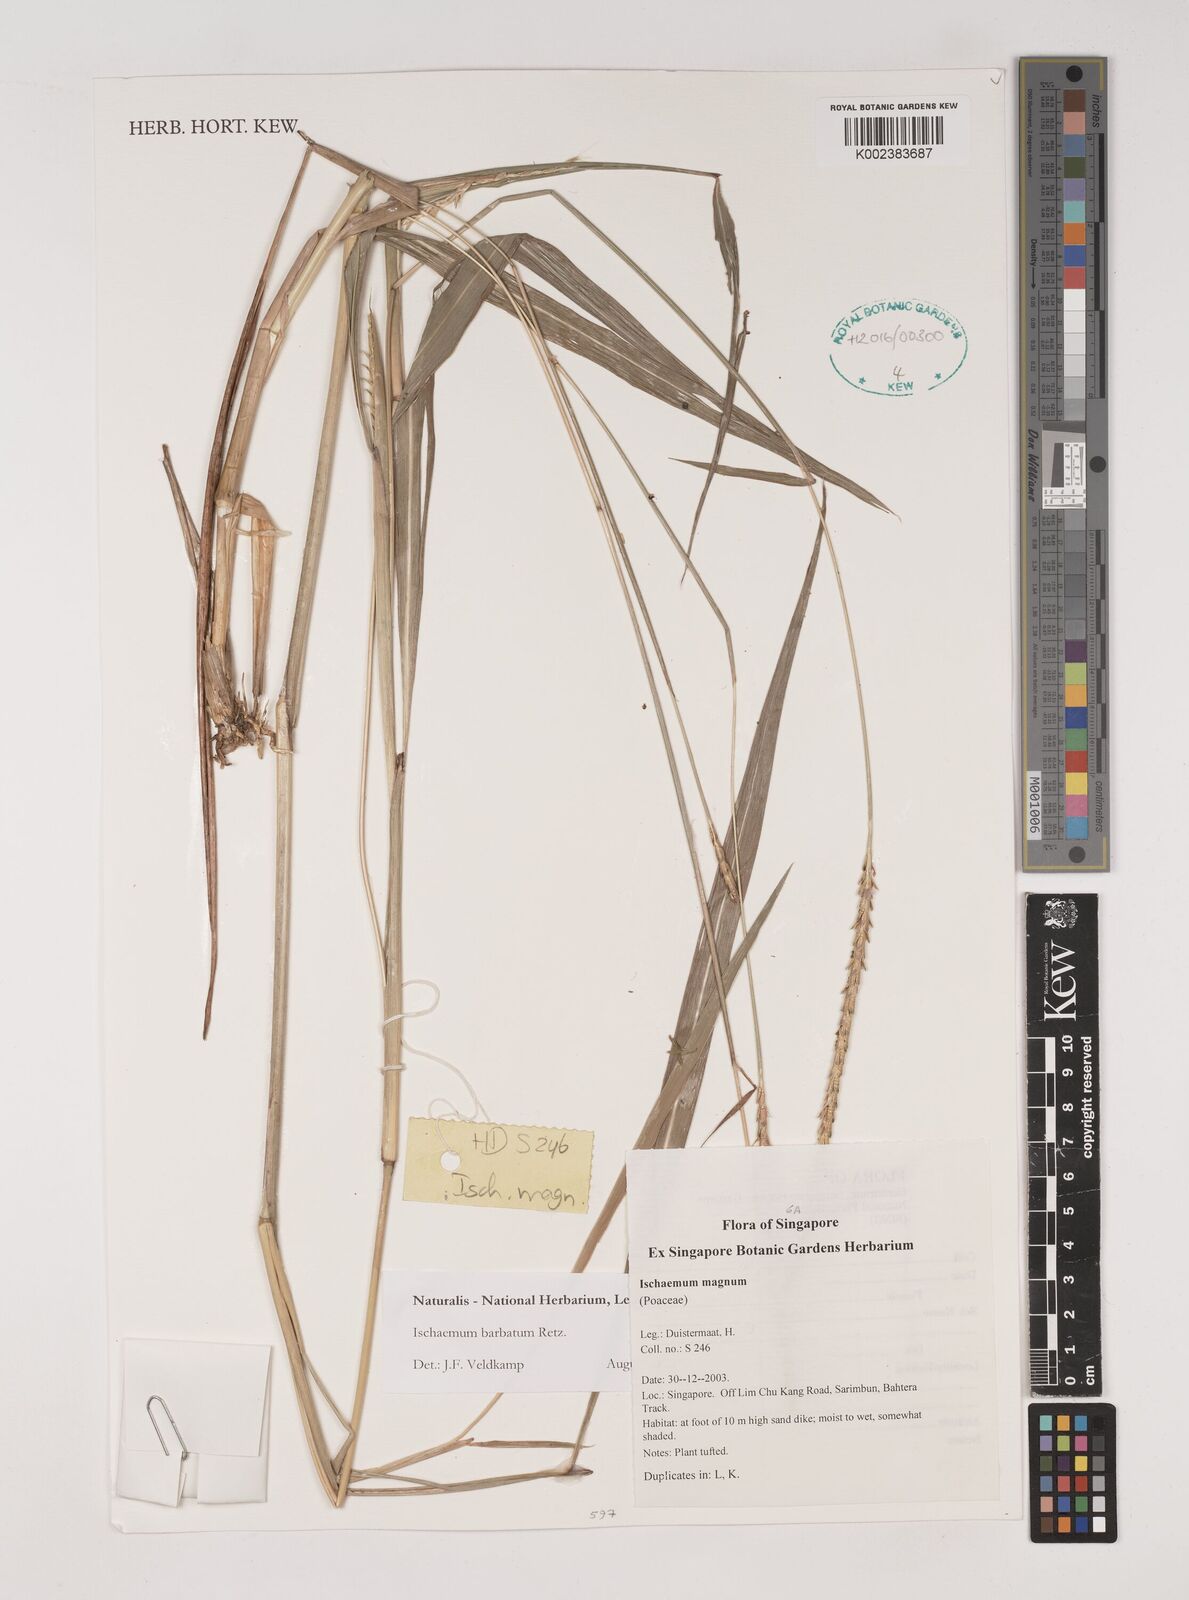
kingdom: Plantae
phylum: Tracheophyta
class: Liliopsida
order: Poales
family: Poaceae
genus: Ischaemum
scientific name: Ischaemum barbatum
